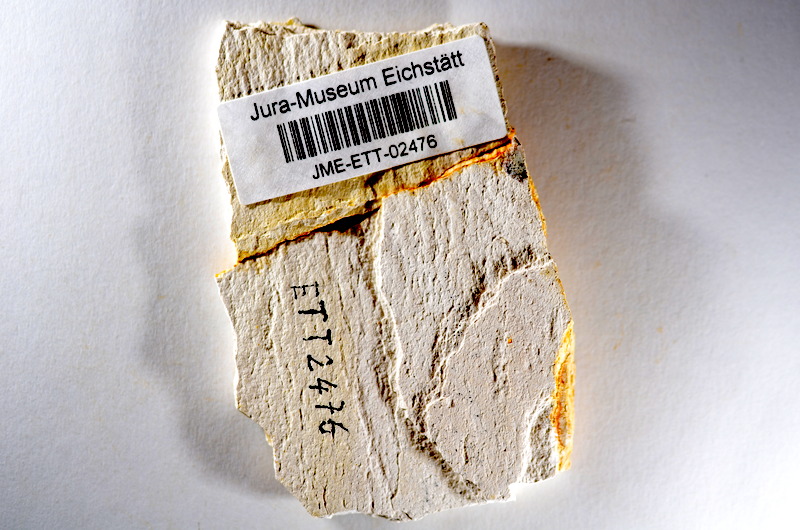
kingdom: Animalia
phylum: Chordata
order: Salmoniformes
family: Orthogonikleithridae
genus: Orthogonikleithrus
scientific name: Orthogonikleithrus hoelli
